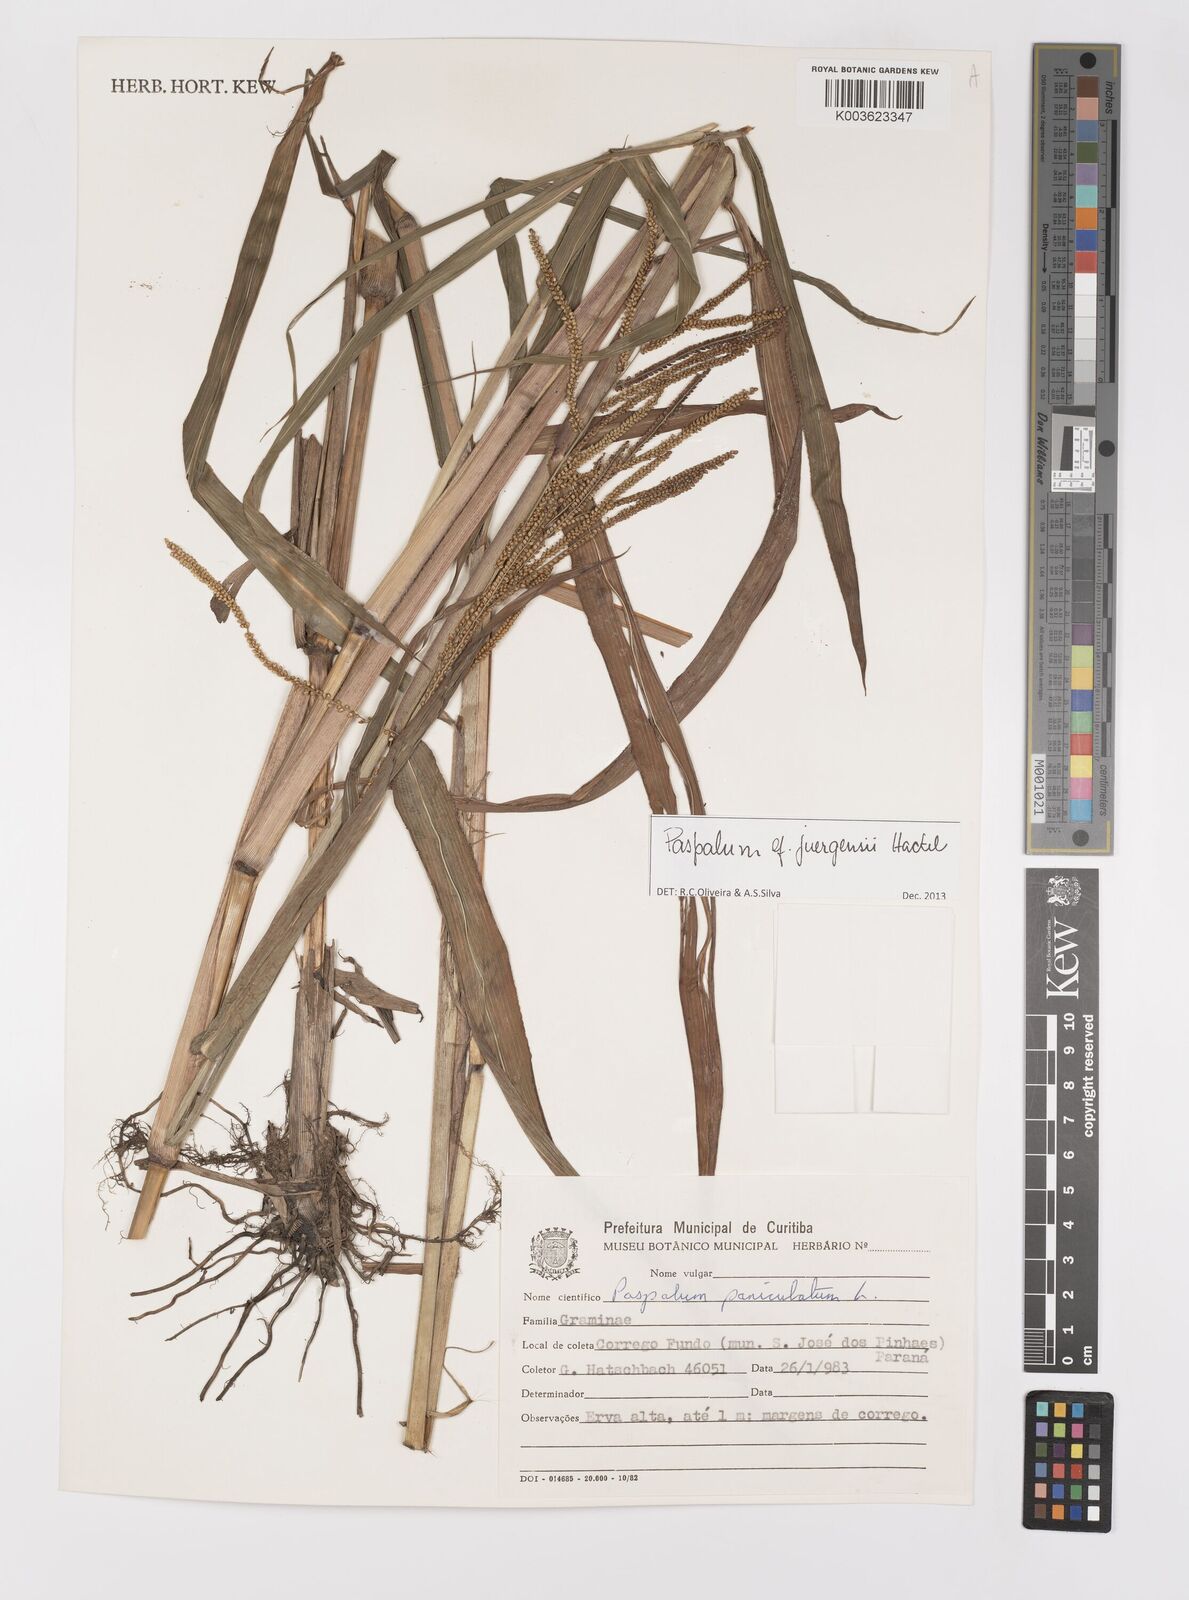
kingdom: Plantae
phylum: Tracheophyta
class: Liliopsida
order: Poales
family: Poaceae
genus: Paspalum
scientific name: Paspalum juergensii
